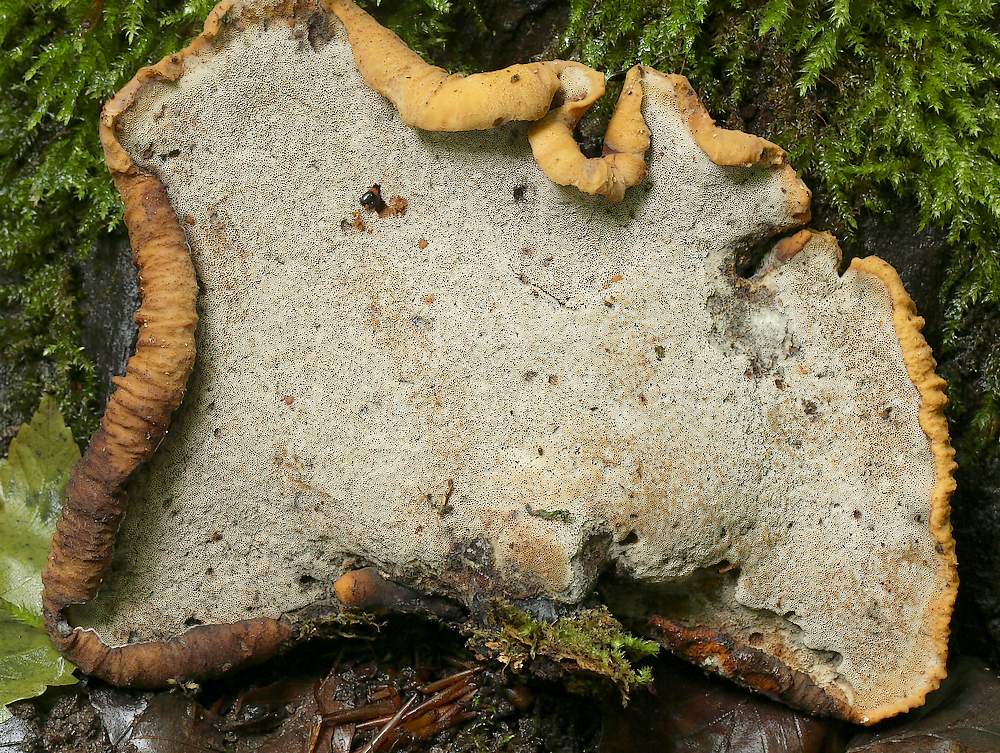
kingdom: Fungi
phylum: Basidiomycota
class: Agaricomycetes
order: Polyporales
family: Polyporaceae
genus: Cerioporus
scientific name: Cerioporus varius
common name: foranderlig stilkporesvamp
